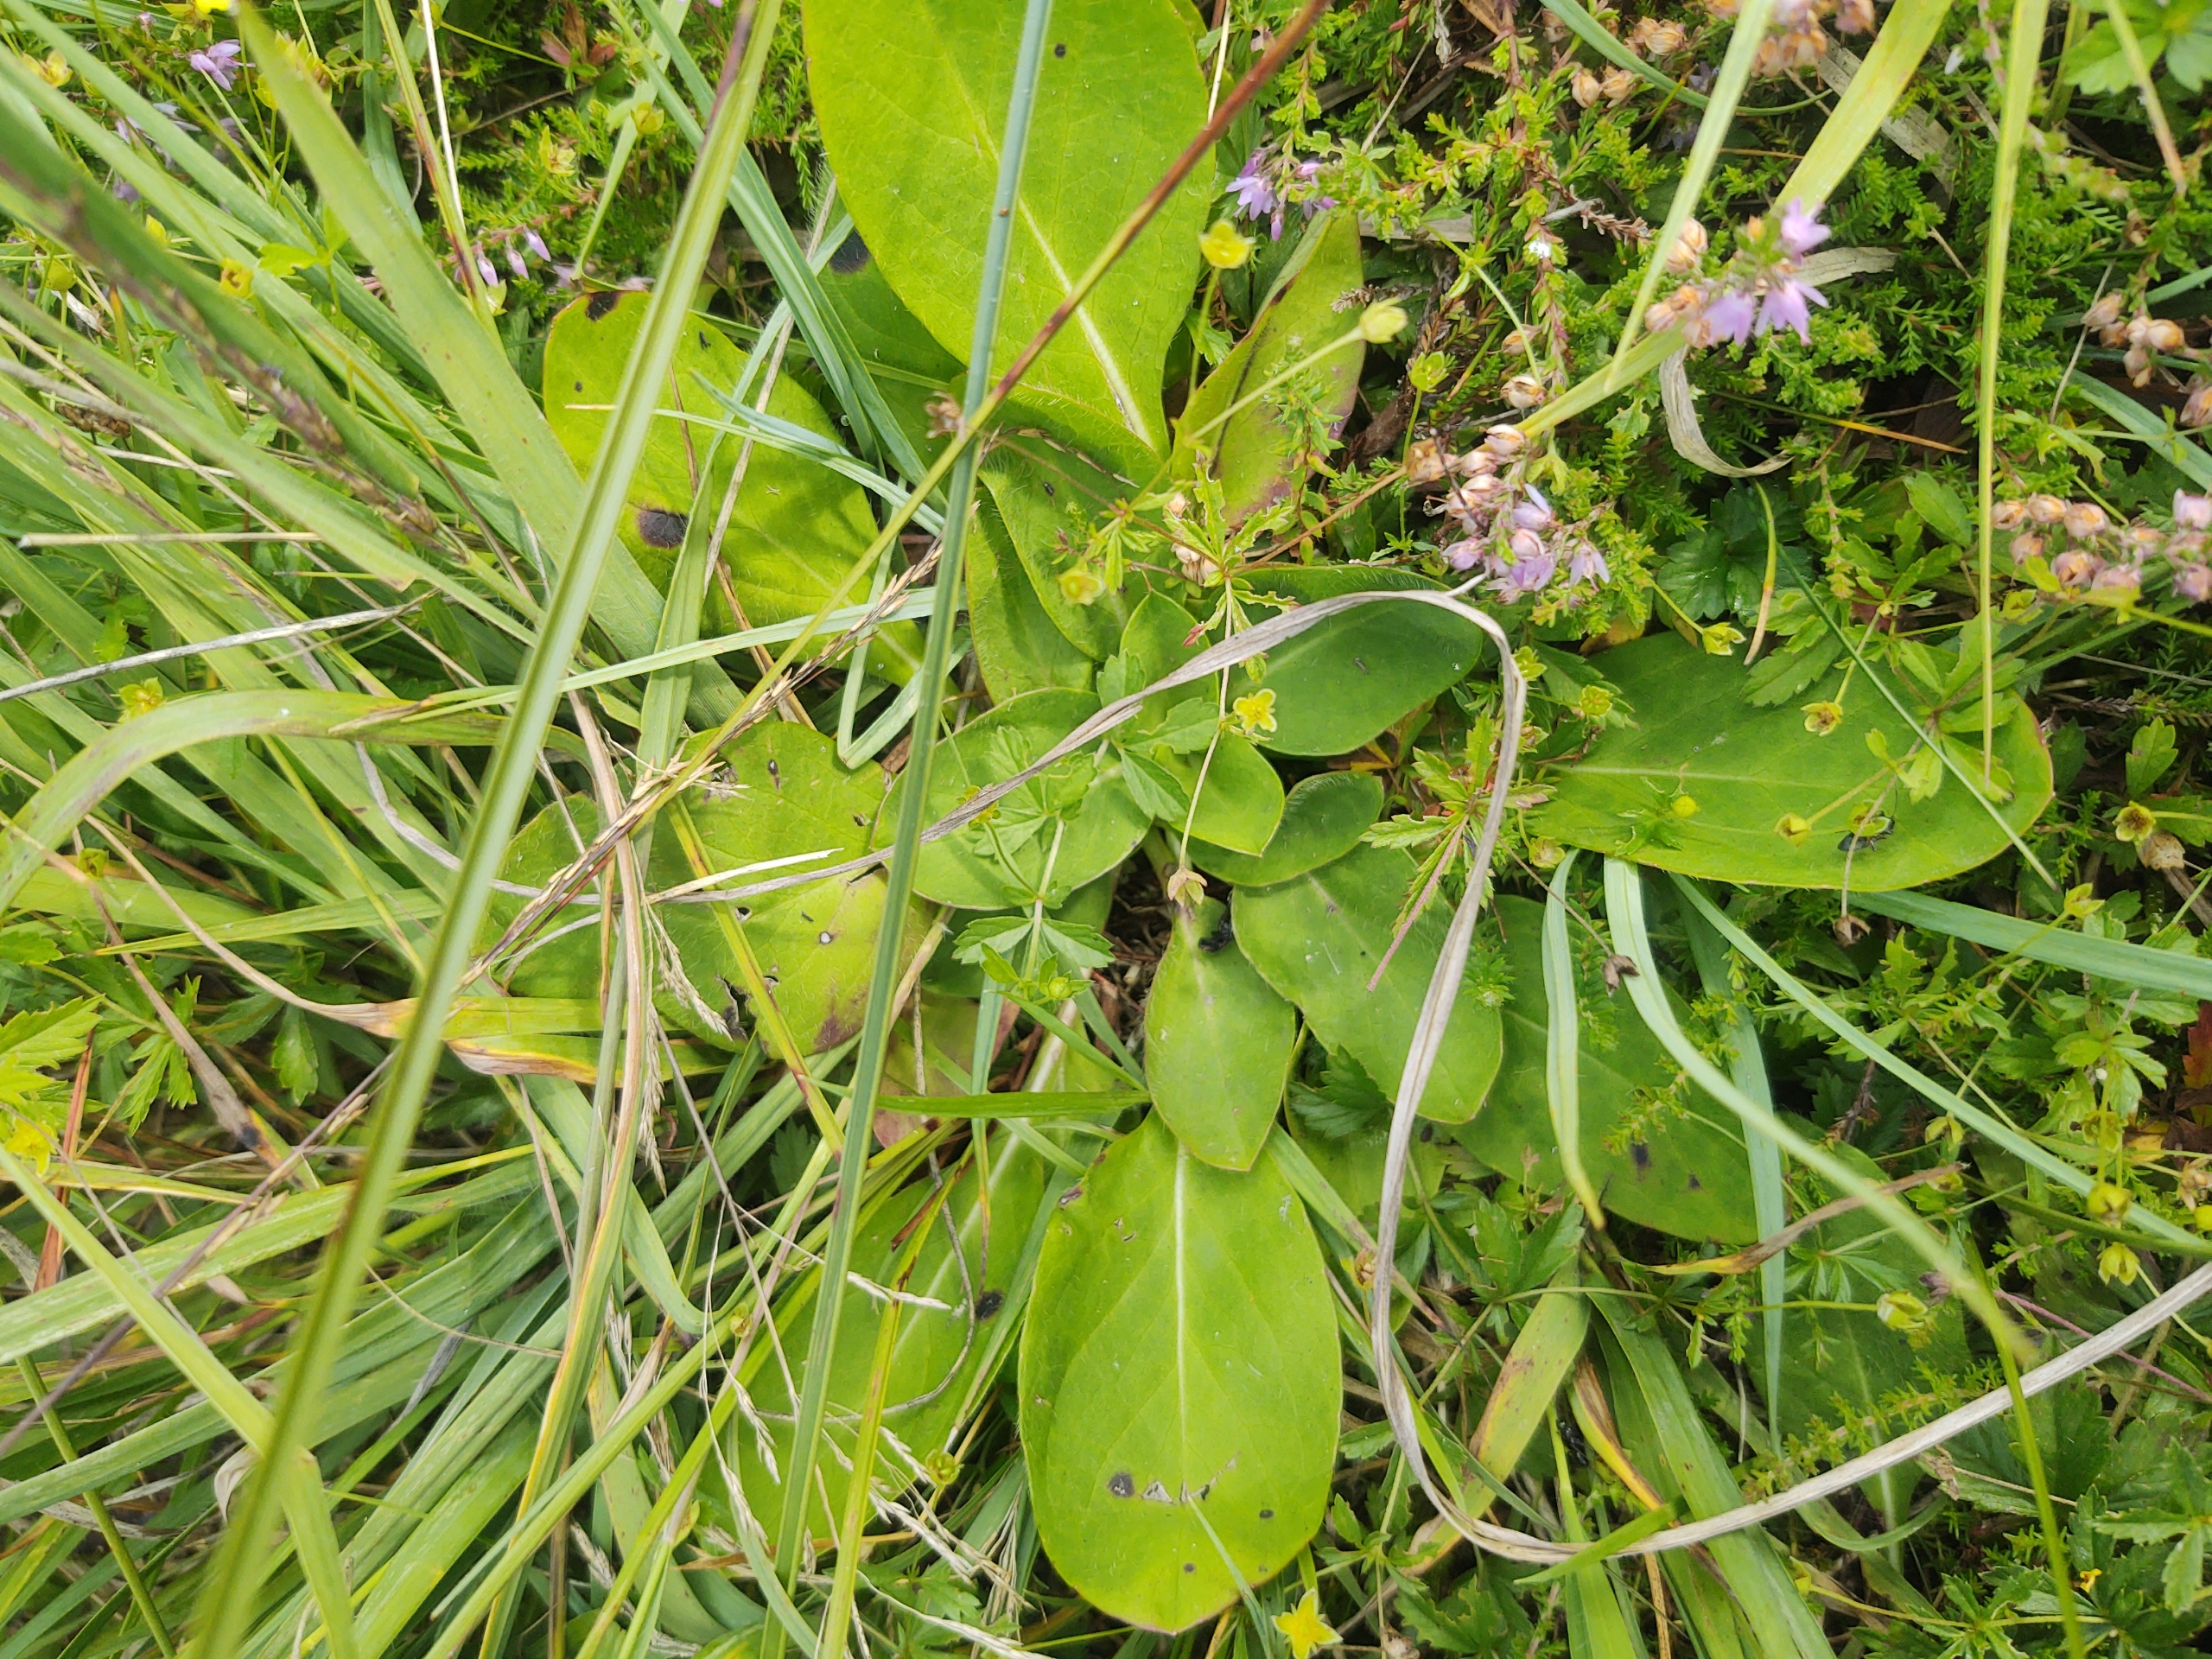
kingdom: Plantae
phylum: Tracheophyta
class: Magnoliopsida
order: Dipsacales
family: Caprifoliaceae
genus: Succisa
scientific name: Succisa pratensis
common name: Djævelsbid
